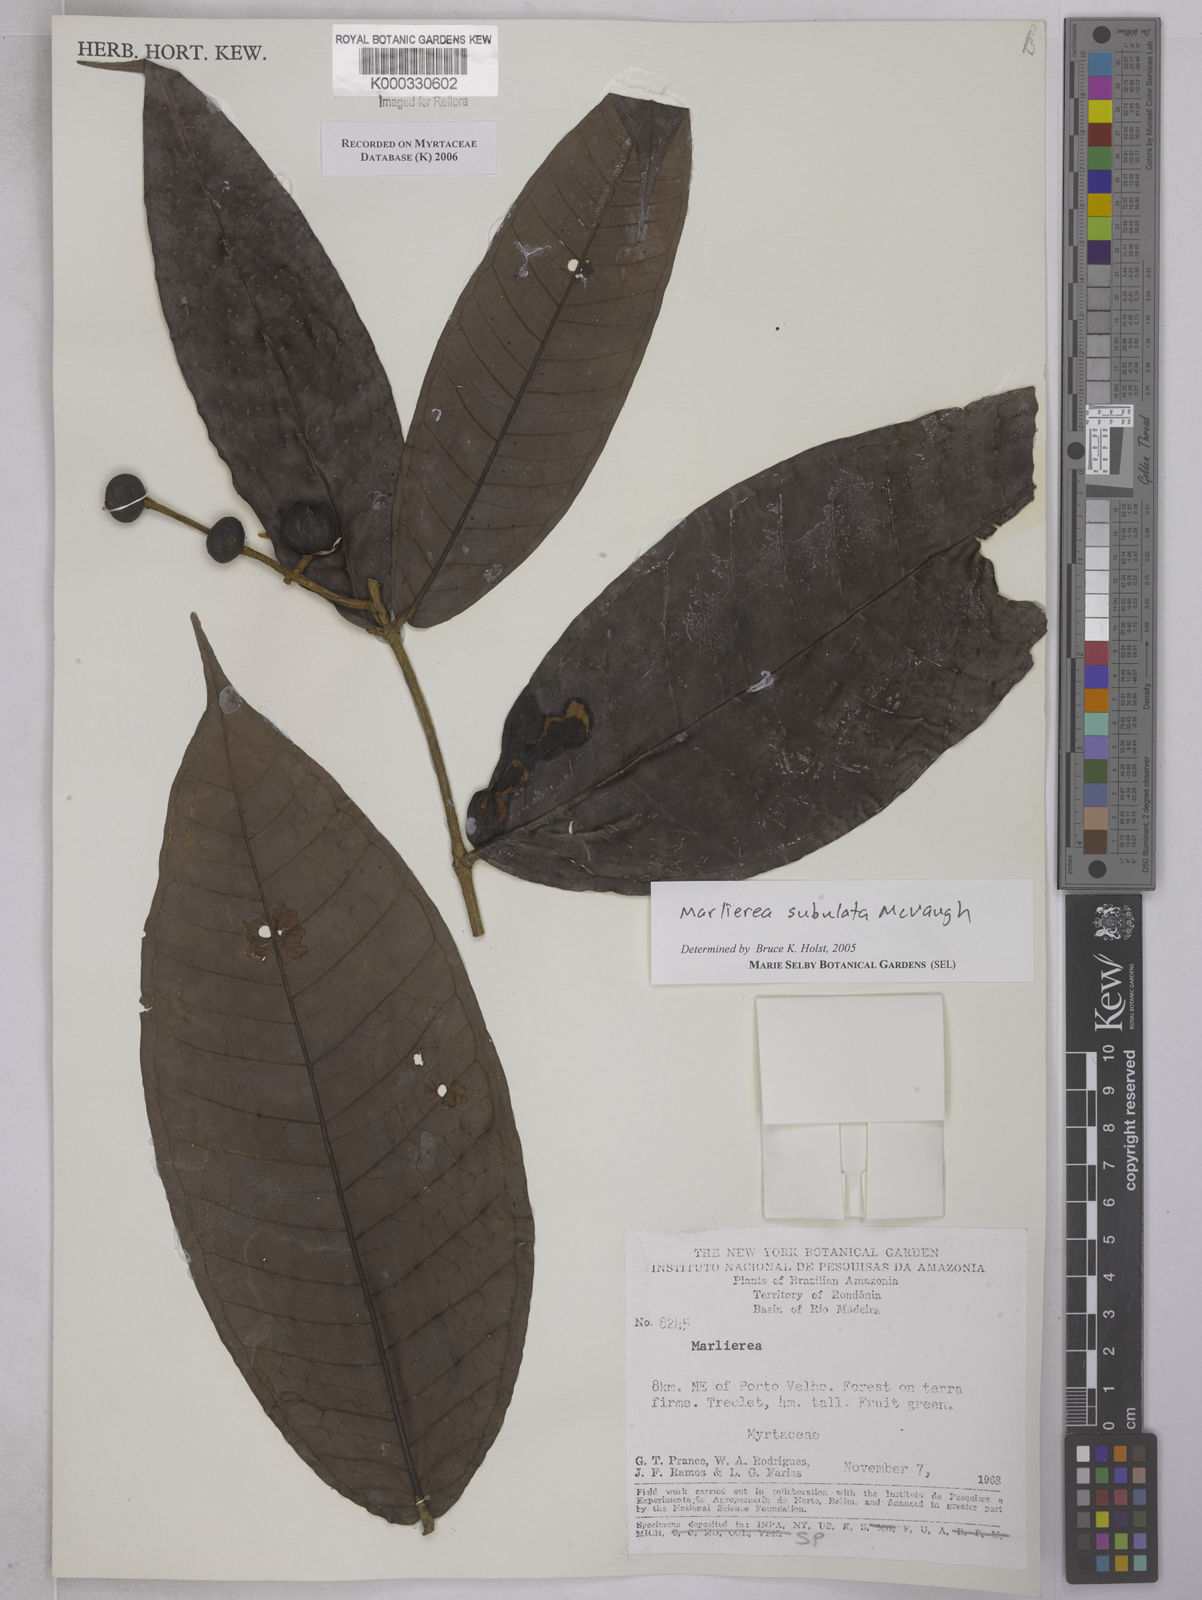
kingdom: Plantae
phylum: Tracheophyta
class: Magnoliopsida
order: Myrtales
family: Myrtaceae
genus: Myrcia
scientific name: Myrcia subulata
